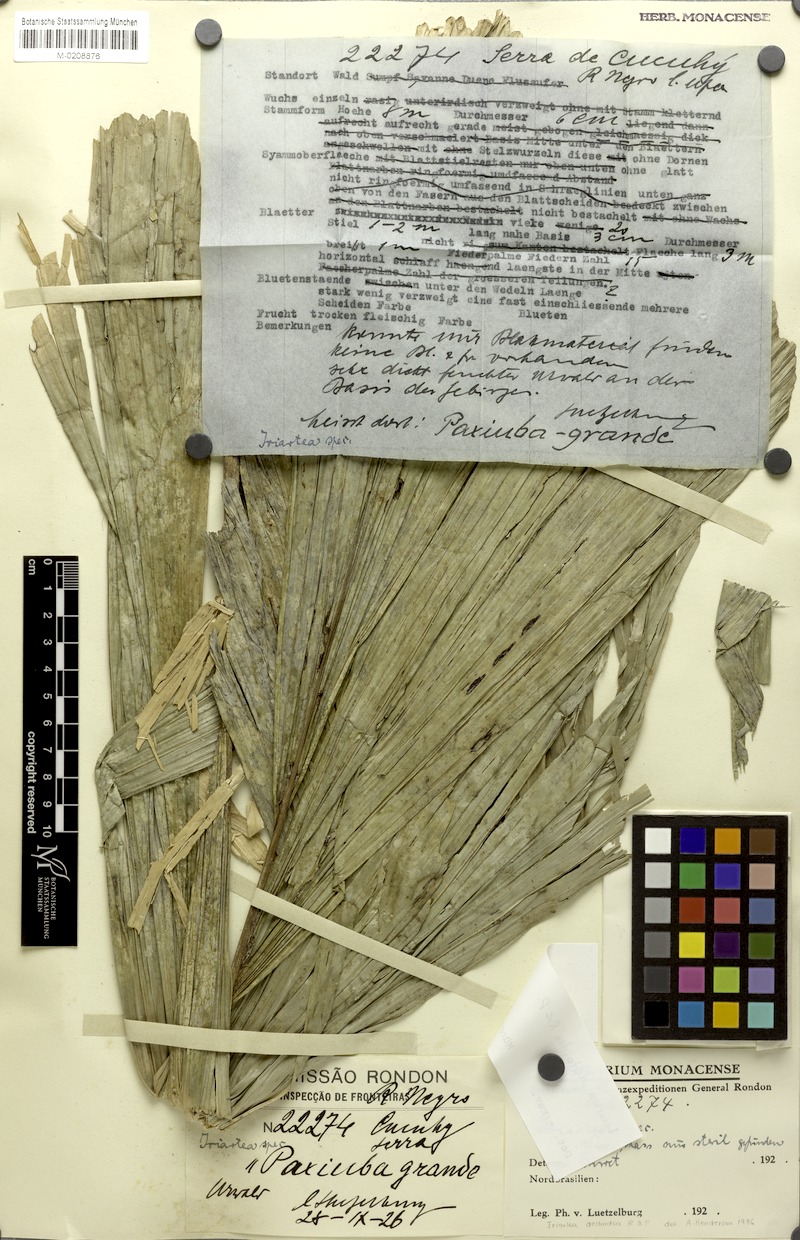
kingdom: Plantae
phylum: Tracheophyta
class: Liliopsida
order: Arecales
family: Arecaceae
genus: Iriartea
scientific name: Iriartea deltoidea
